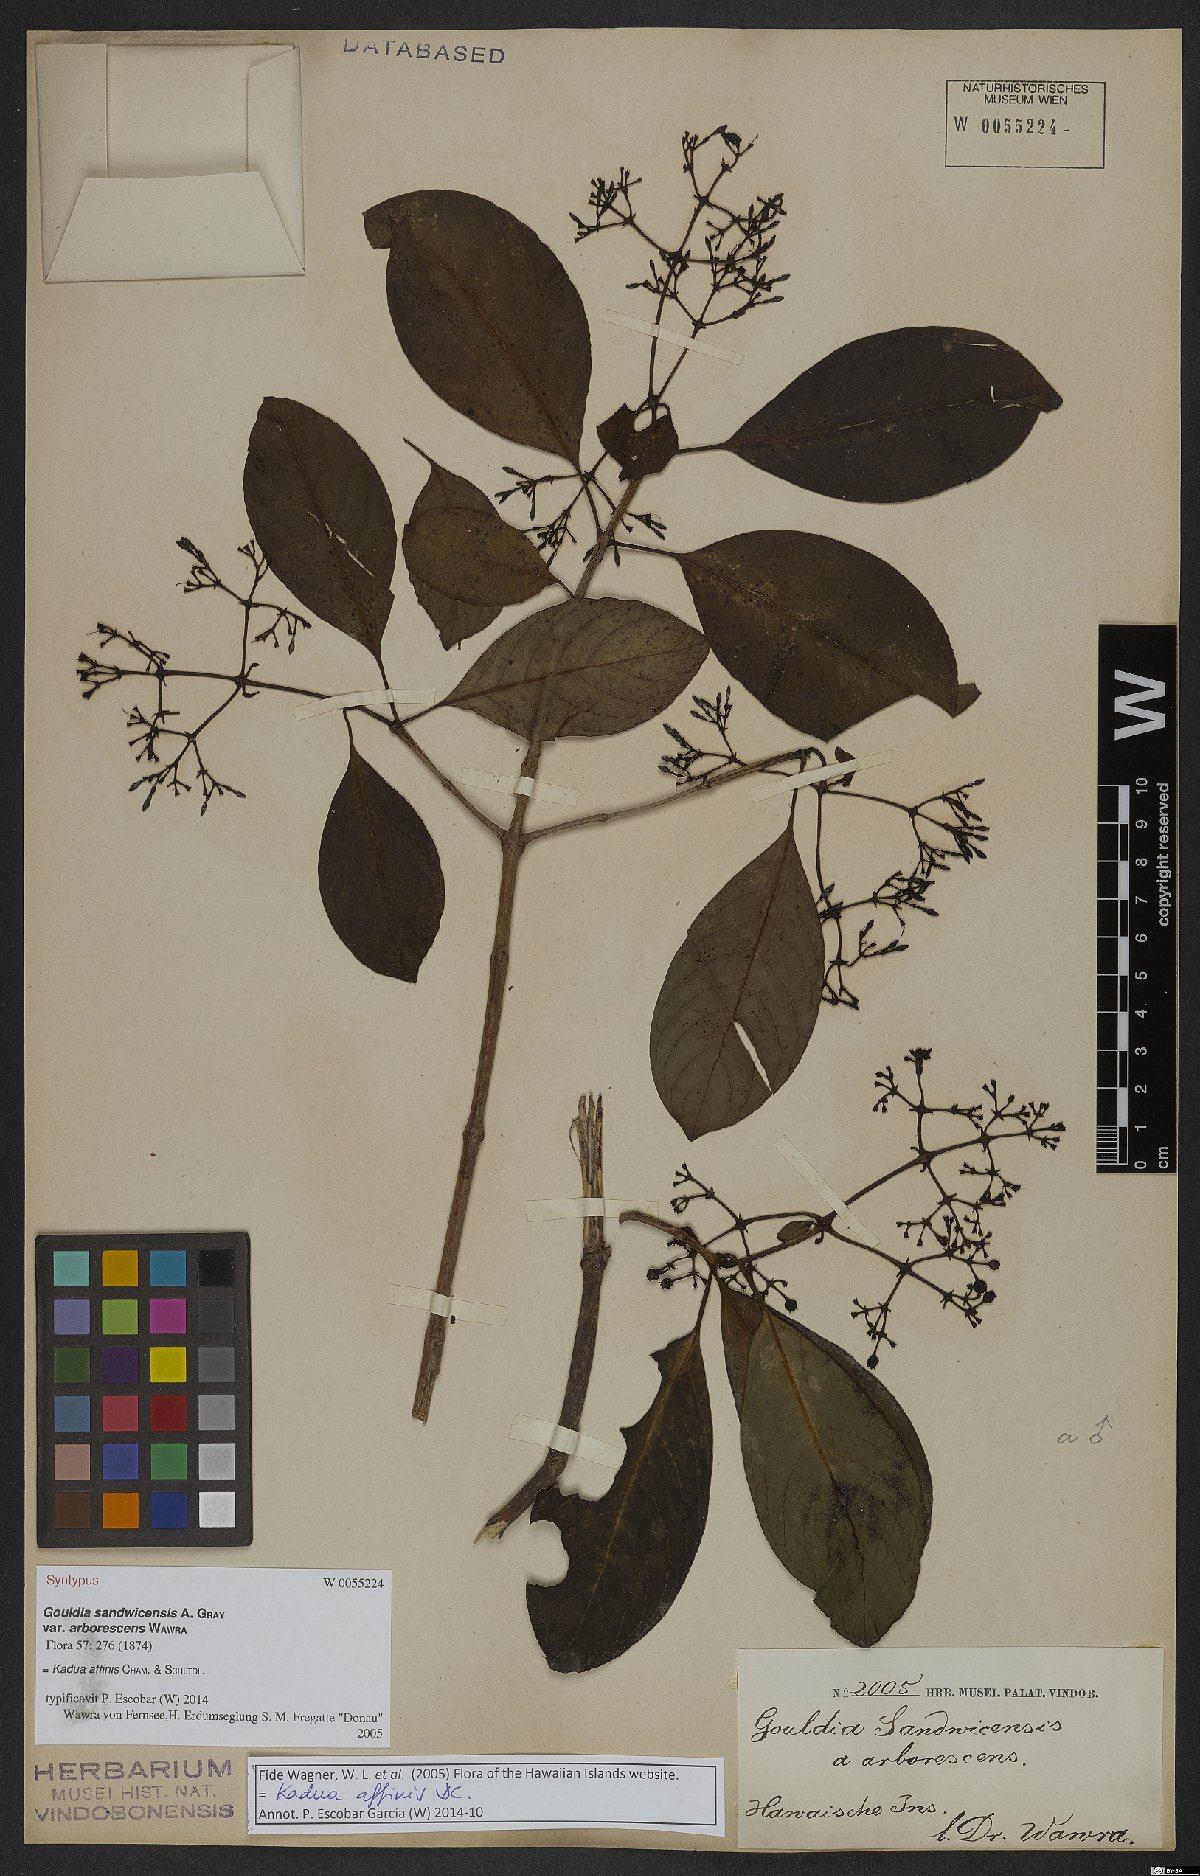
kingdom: Plantae
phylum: Tracheophyta
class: Magnoliopsida
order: Gentianales
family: Rubiaceae
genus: Kadua
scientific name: Kadua affinis
